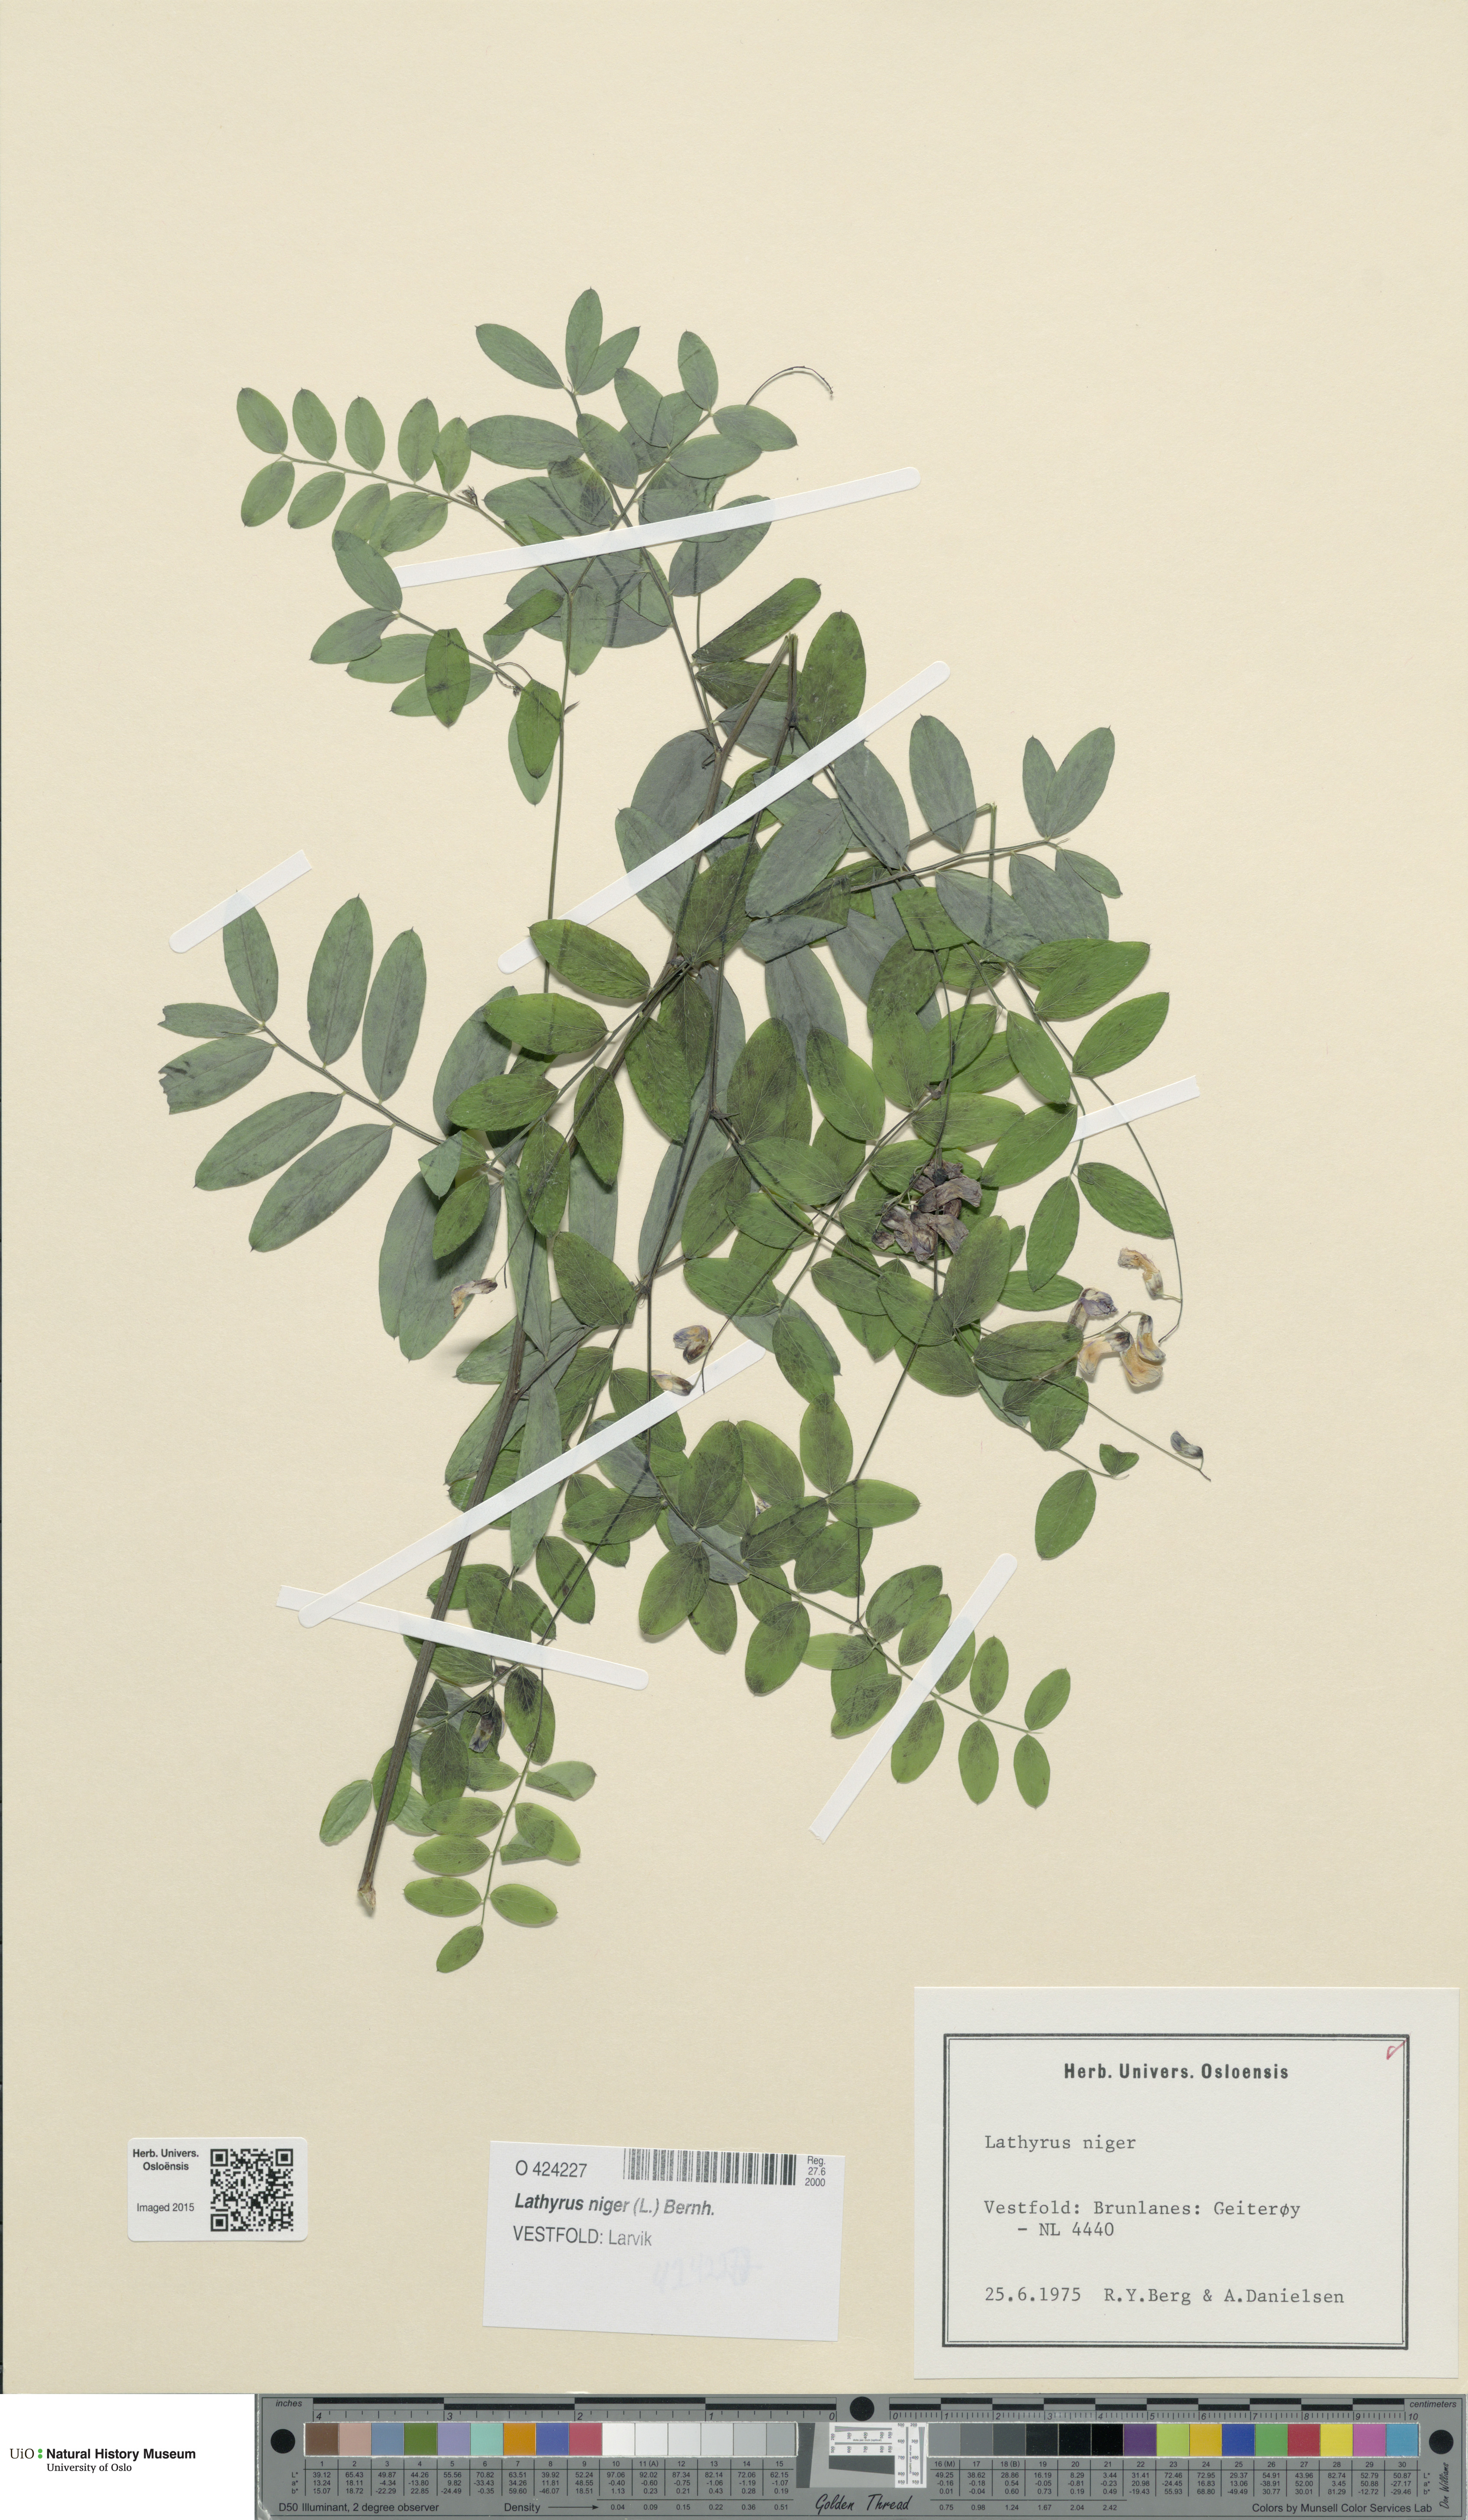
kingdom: Plantae
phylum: Tracheophyta
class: Magnoliopsida
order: Fabales
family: Fabaceae
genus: Lathyrus
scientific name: Lathyrus niger
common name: Black pea
